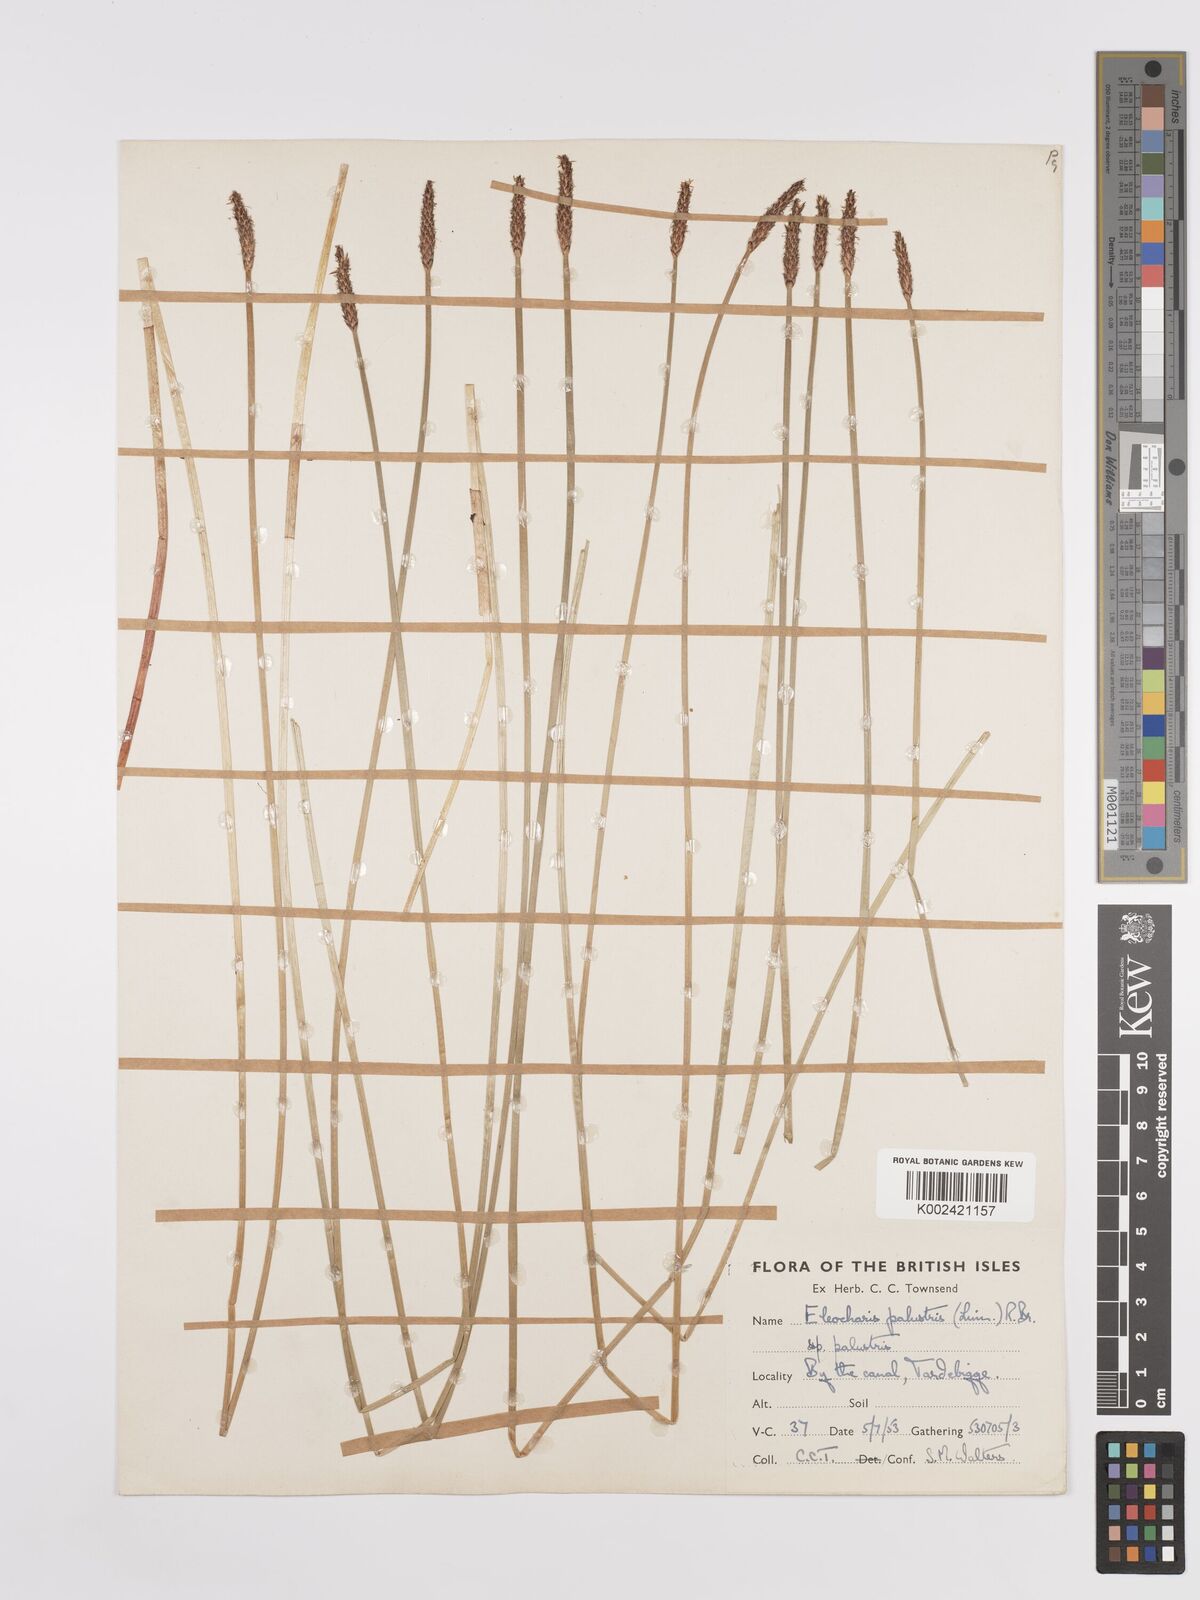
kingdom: Plantae
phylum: Tracheophyta
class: Liliopsida
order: Poales
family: Cyperaceae
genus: Eleocharis
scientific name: Eleocharis palustris
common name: Common spike-rush
